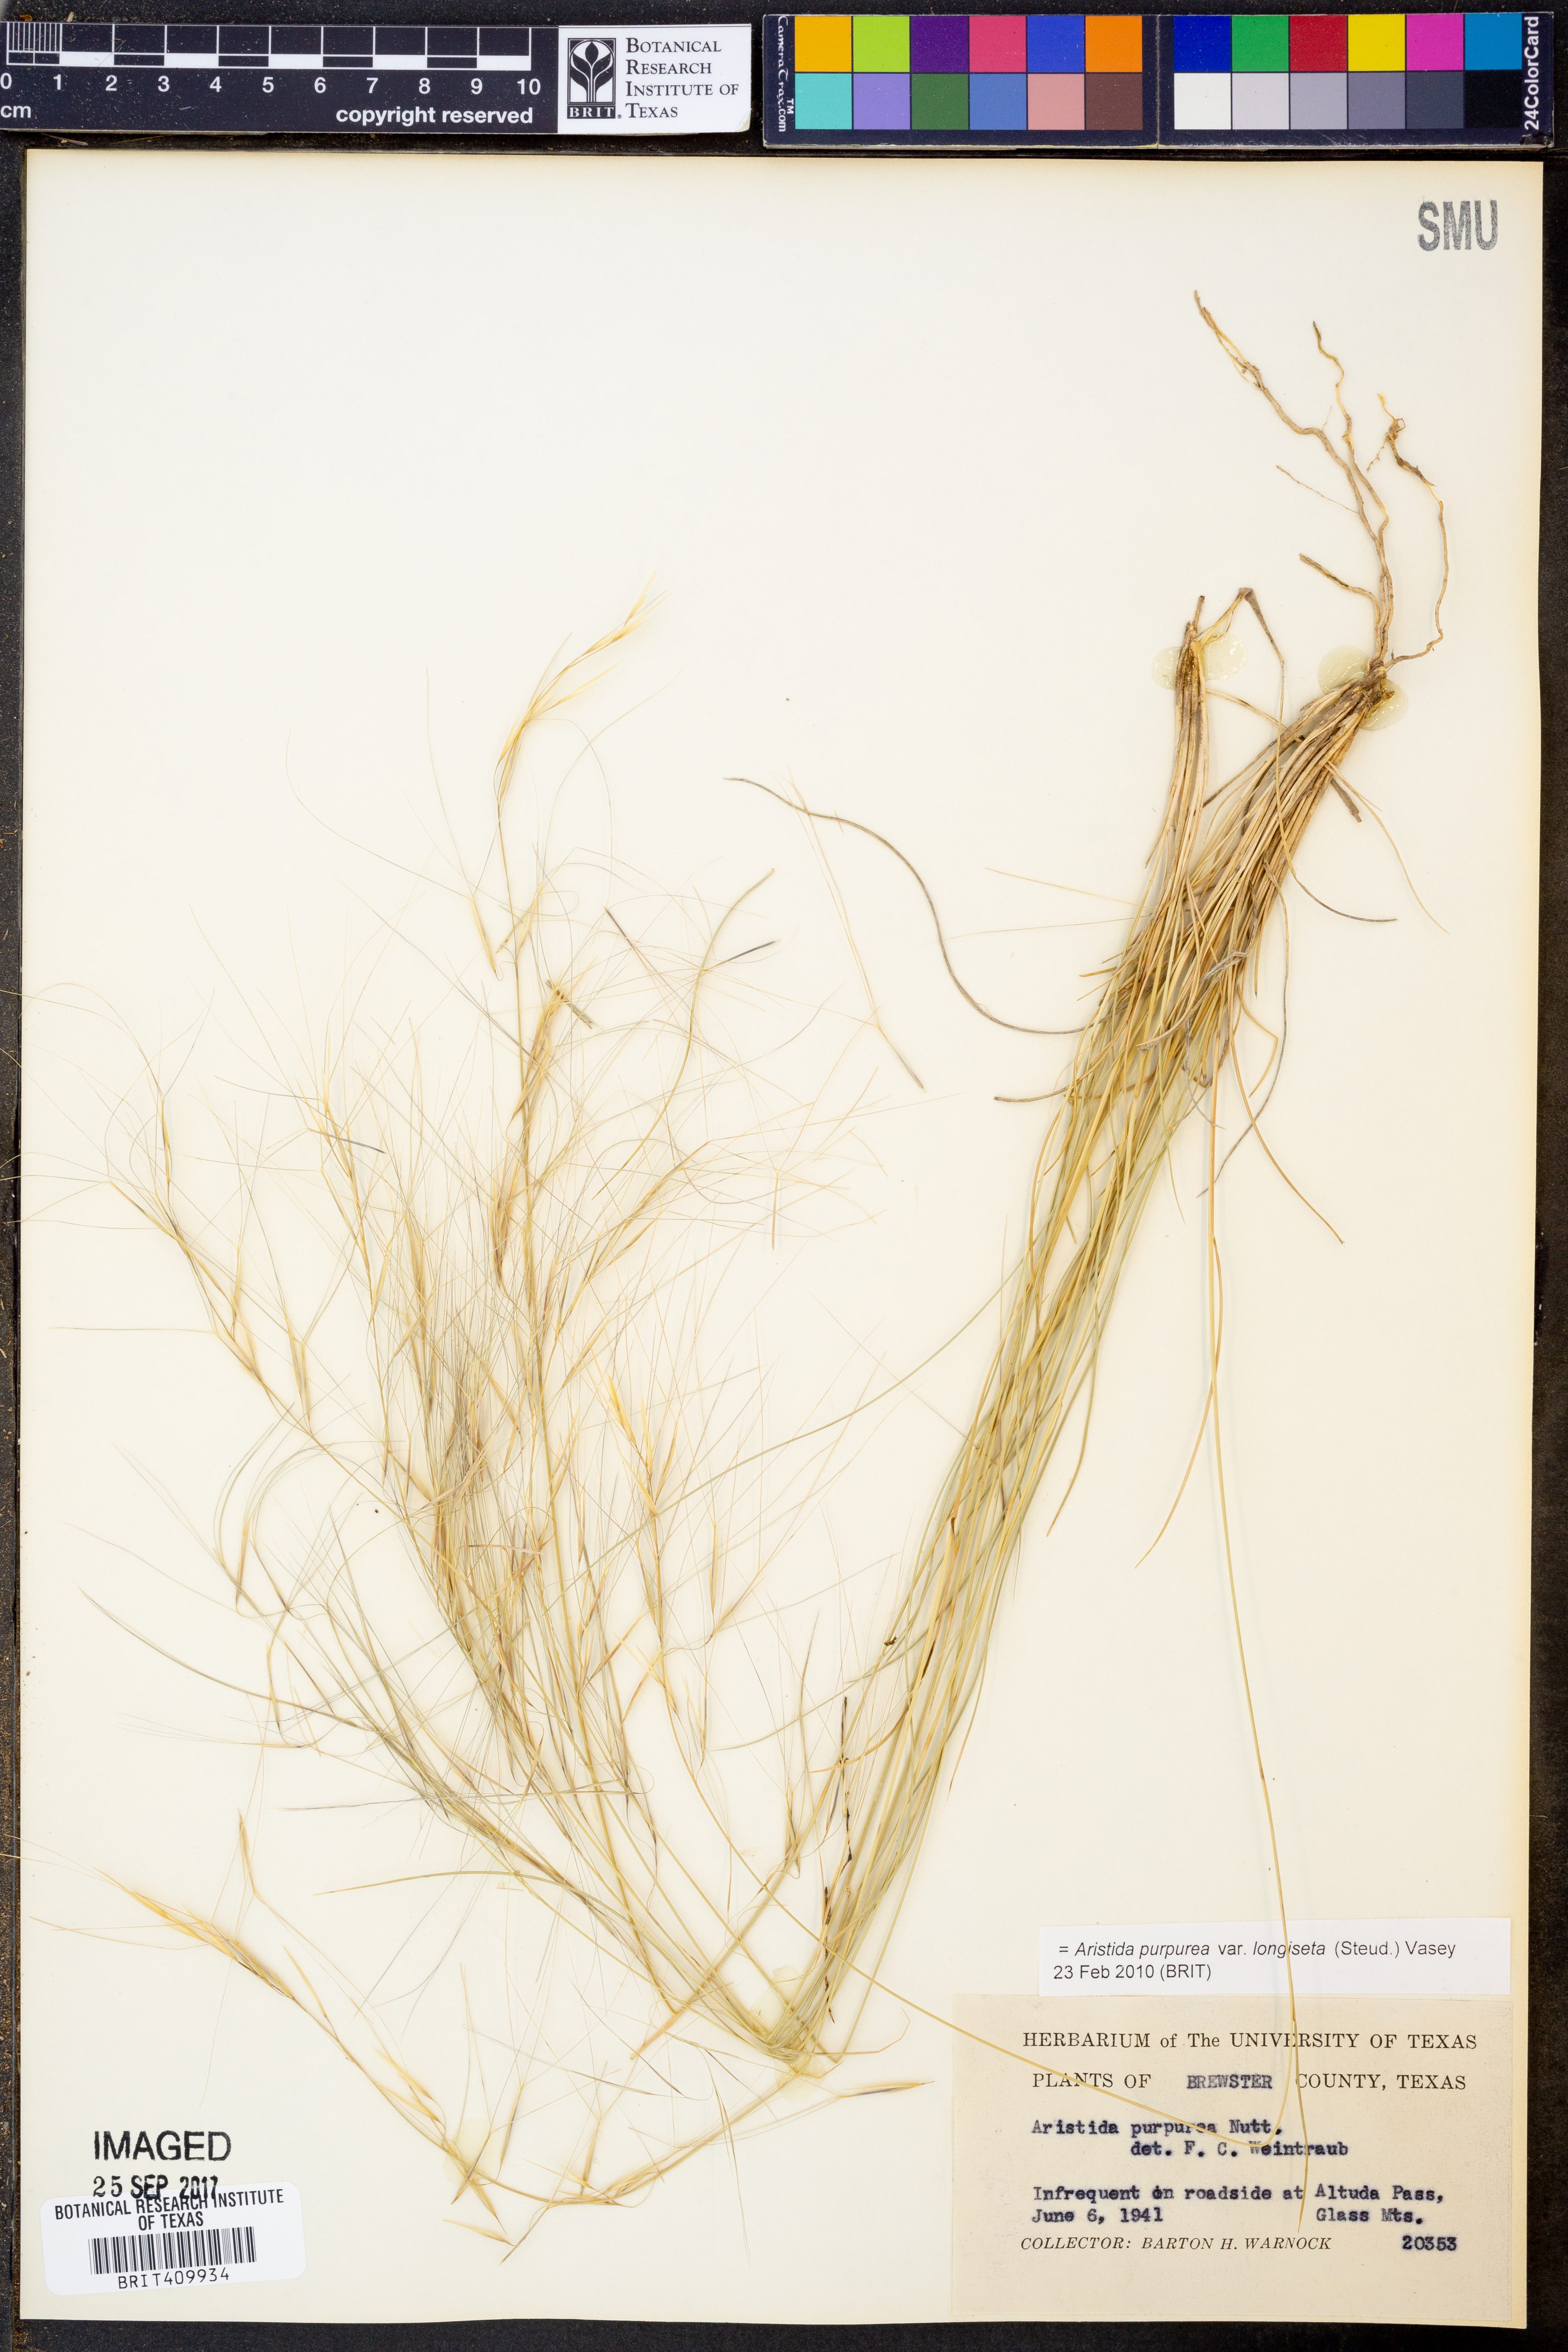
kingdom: Plantae
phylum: Tracheophyta
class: Liliopsida
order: Poales
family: Poaceae
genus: Aristida
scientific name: Aristida longiseta
